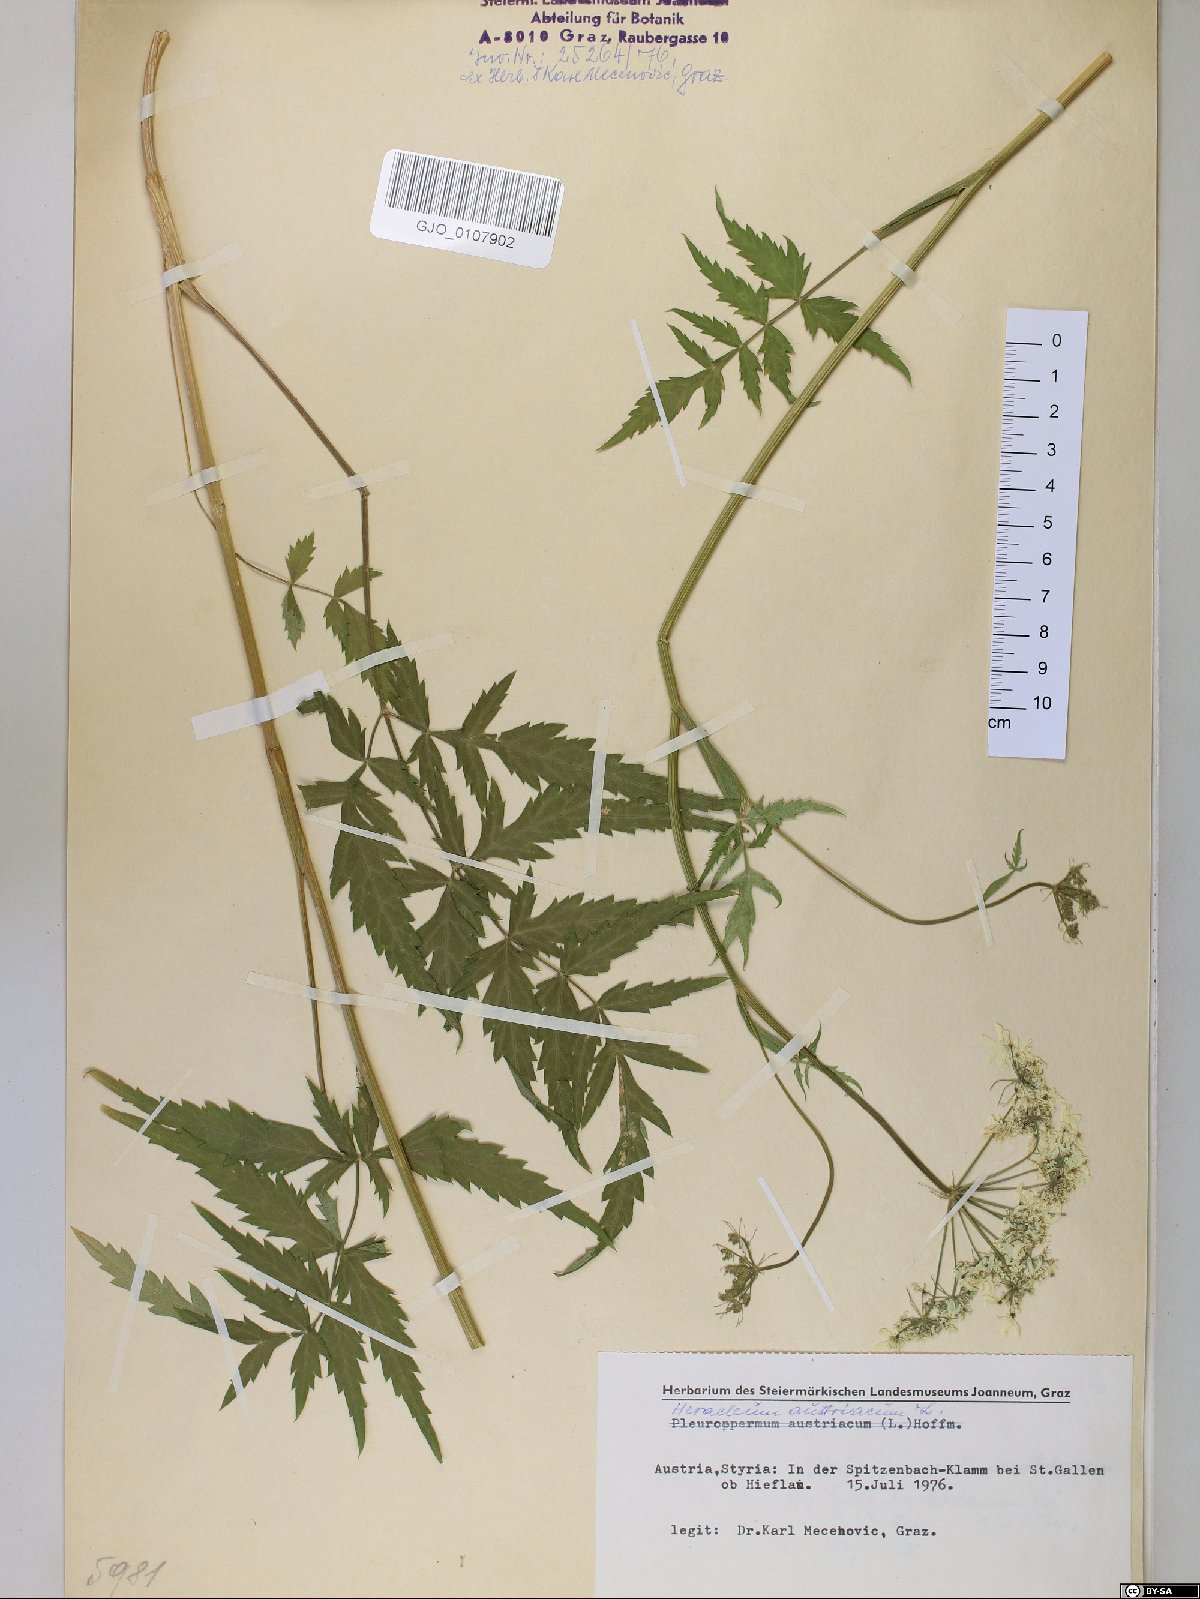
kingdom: Plantae
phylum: Tracheophyta
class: Magnoliopsida
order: Apiales
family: Apiaceae
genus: Heracleum
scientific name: Heracleum austriacum
